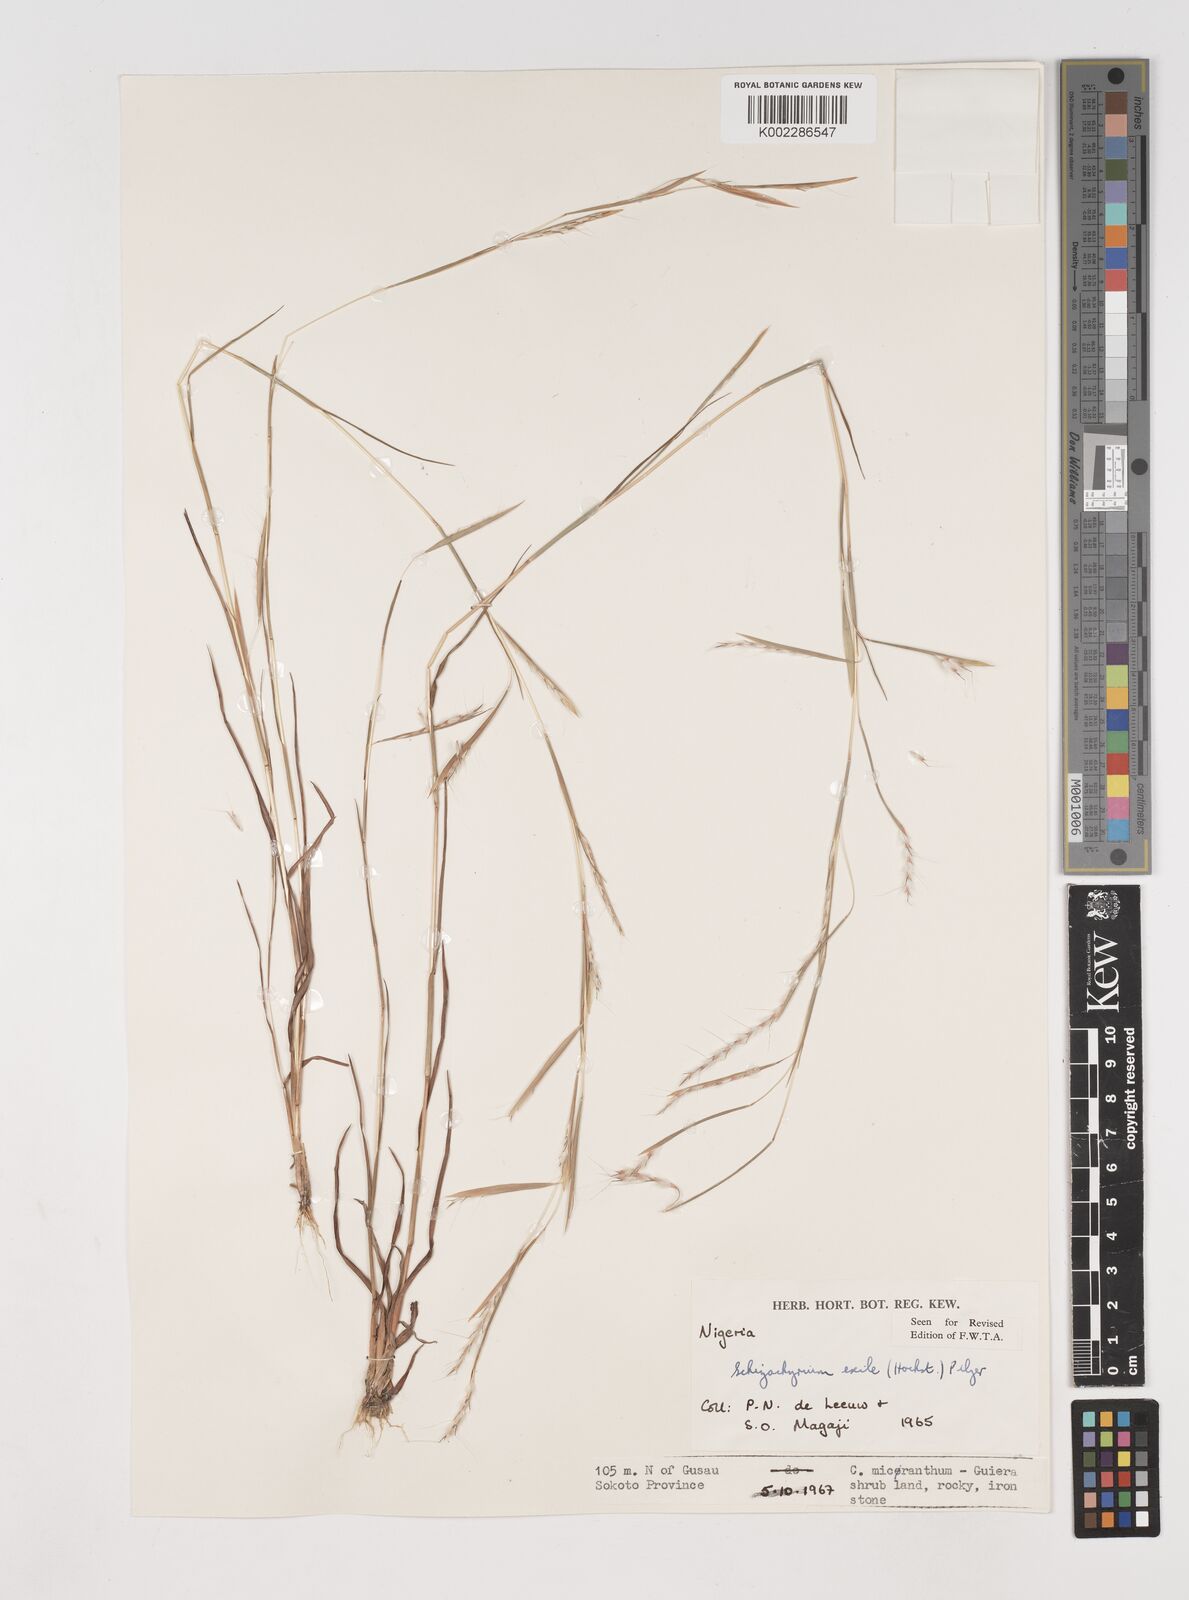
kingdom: Plantae
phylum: Tracheophyta
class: Liliopsida
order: Poales
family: Poaceae
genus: Schizachyrium
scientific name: Schizachyrium exile
